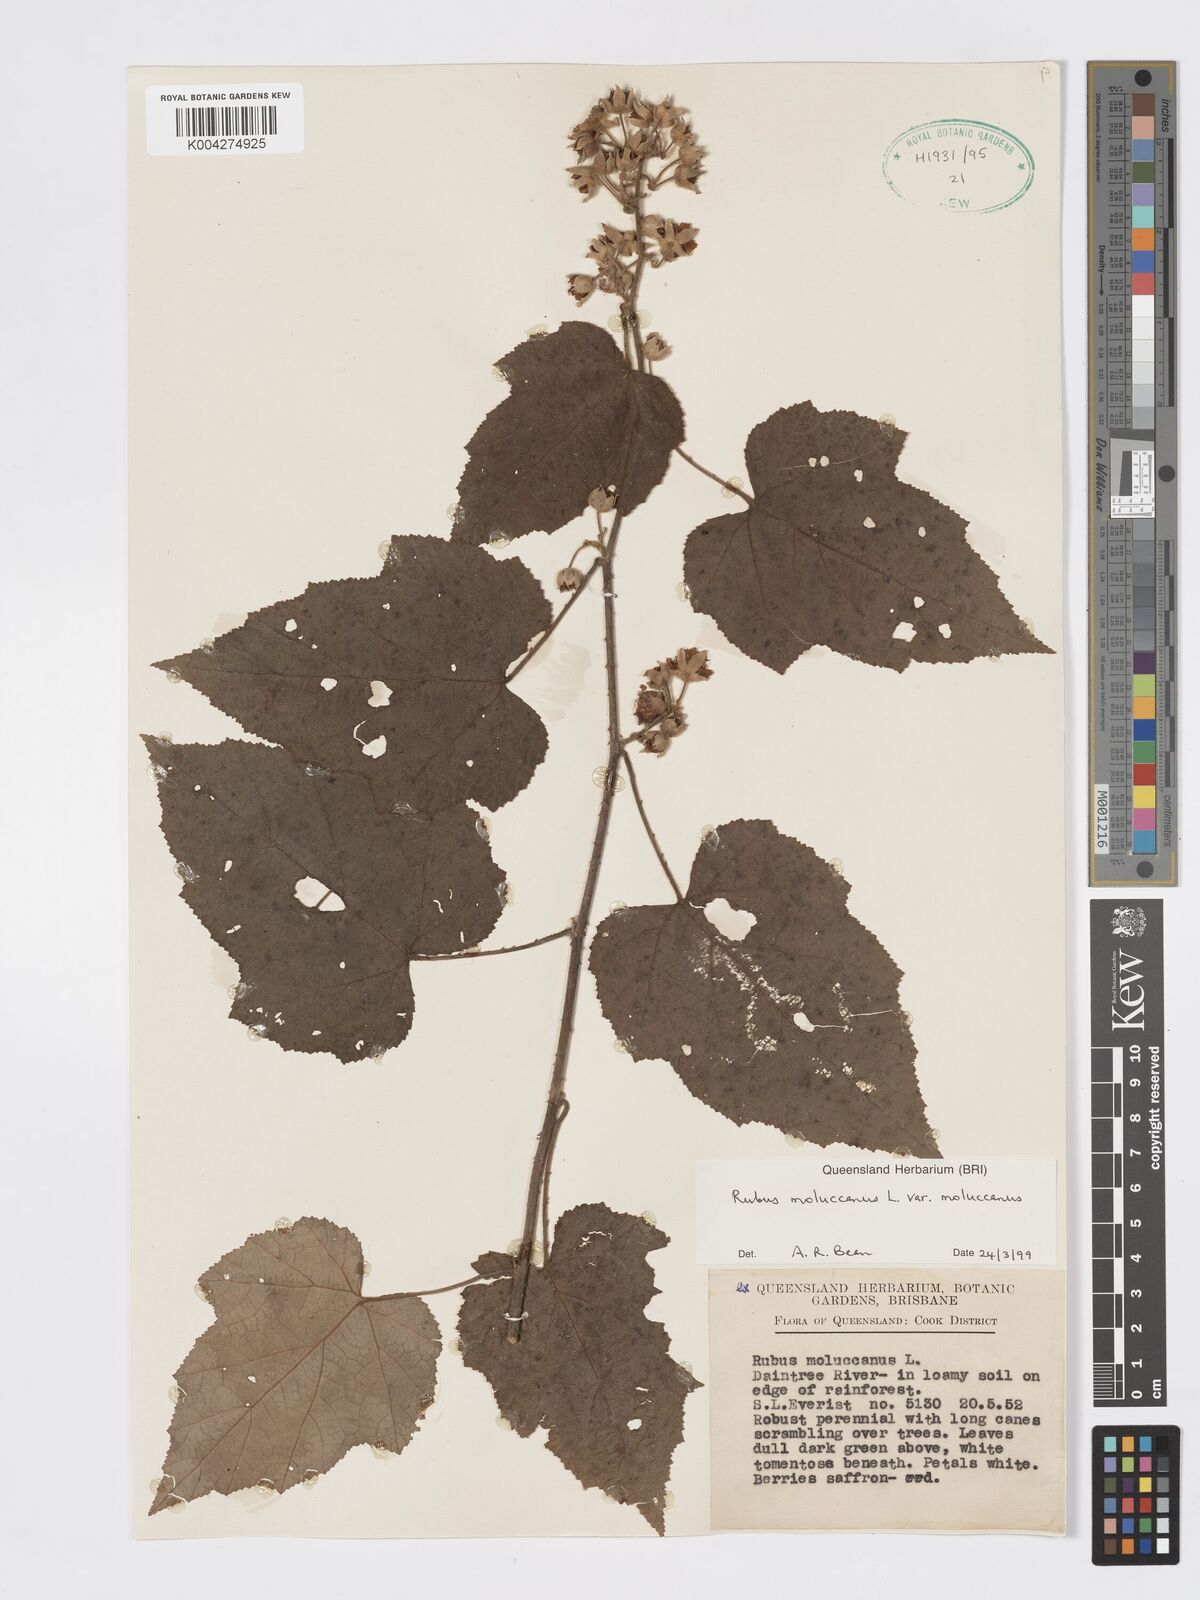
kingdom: Plantae
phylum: Tracheophyta
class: Magnoliopsida
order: Rosales
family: Rosaceae
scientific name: Rosaceae
